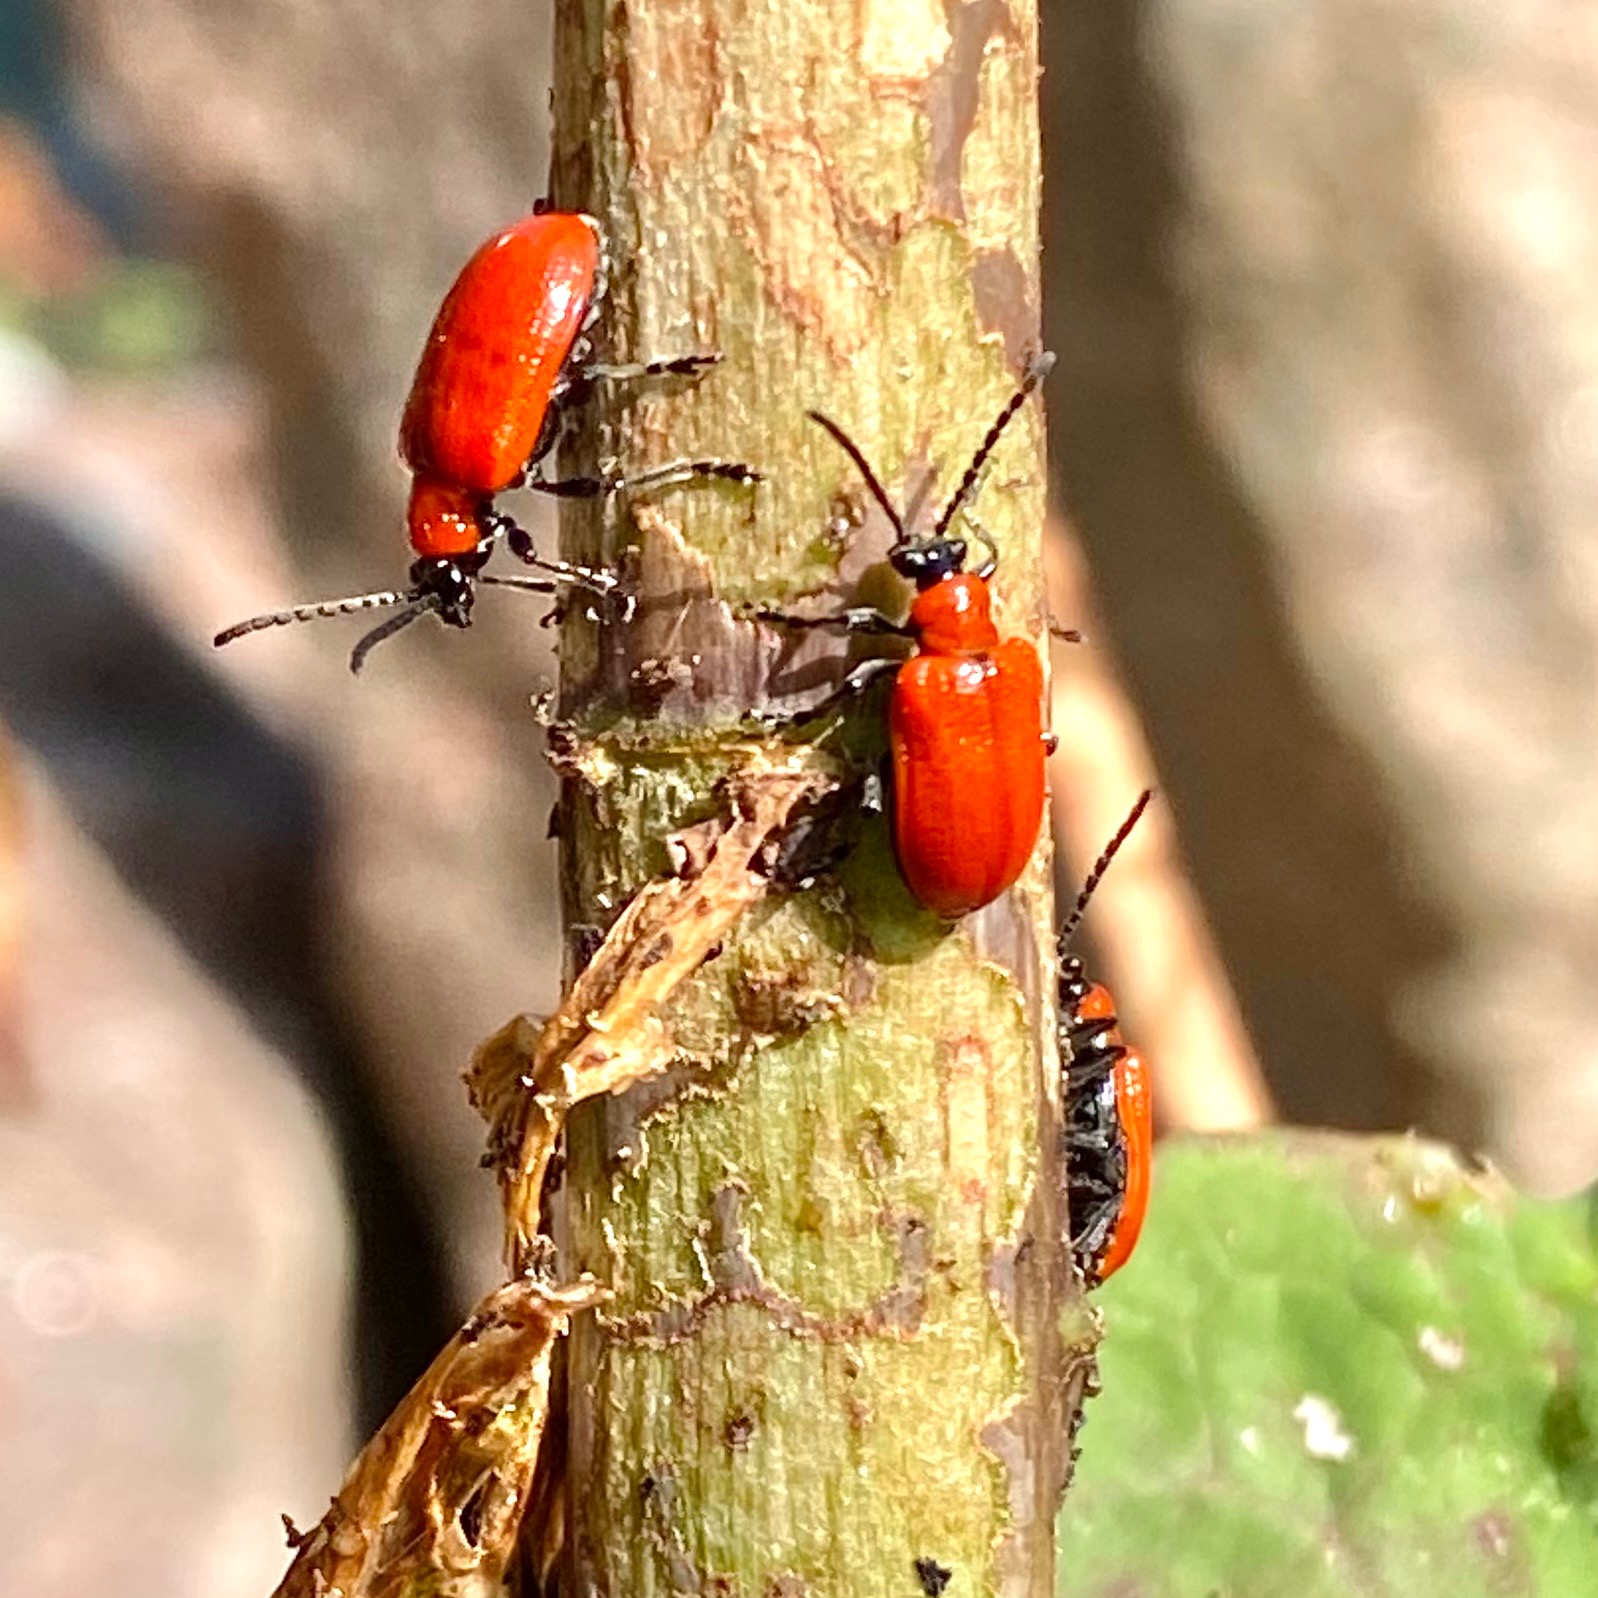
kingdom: Animalia
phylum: Arthropoda
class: Insecta
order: Coleoptera
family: Chrysomelidae
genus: Lilioceris
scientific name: Lilioceris lilii
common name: Liljebille
